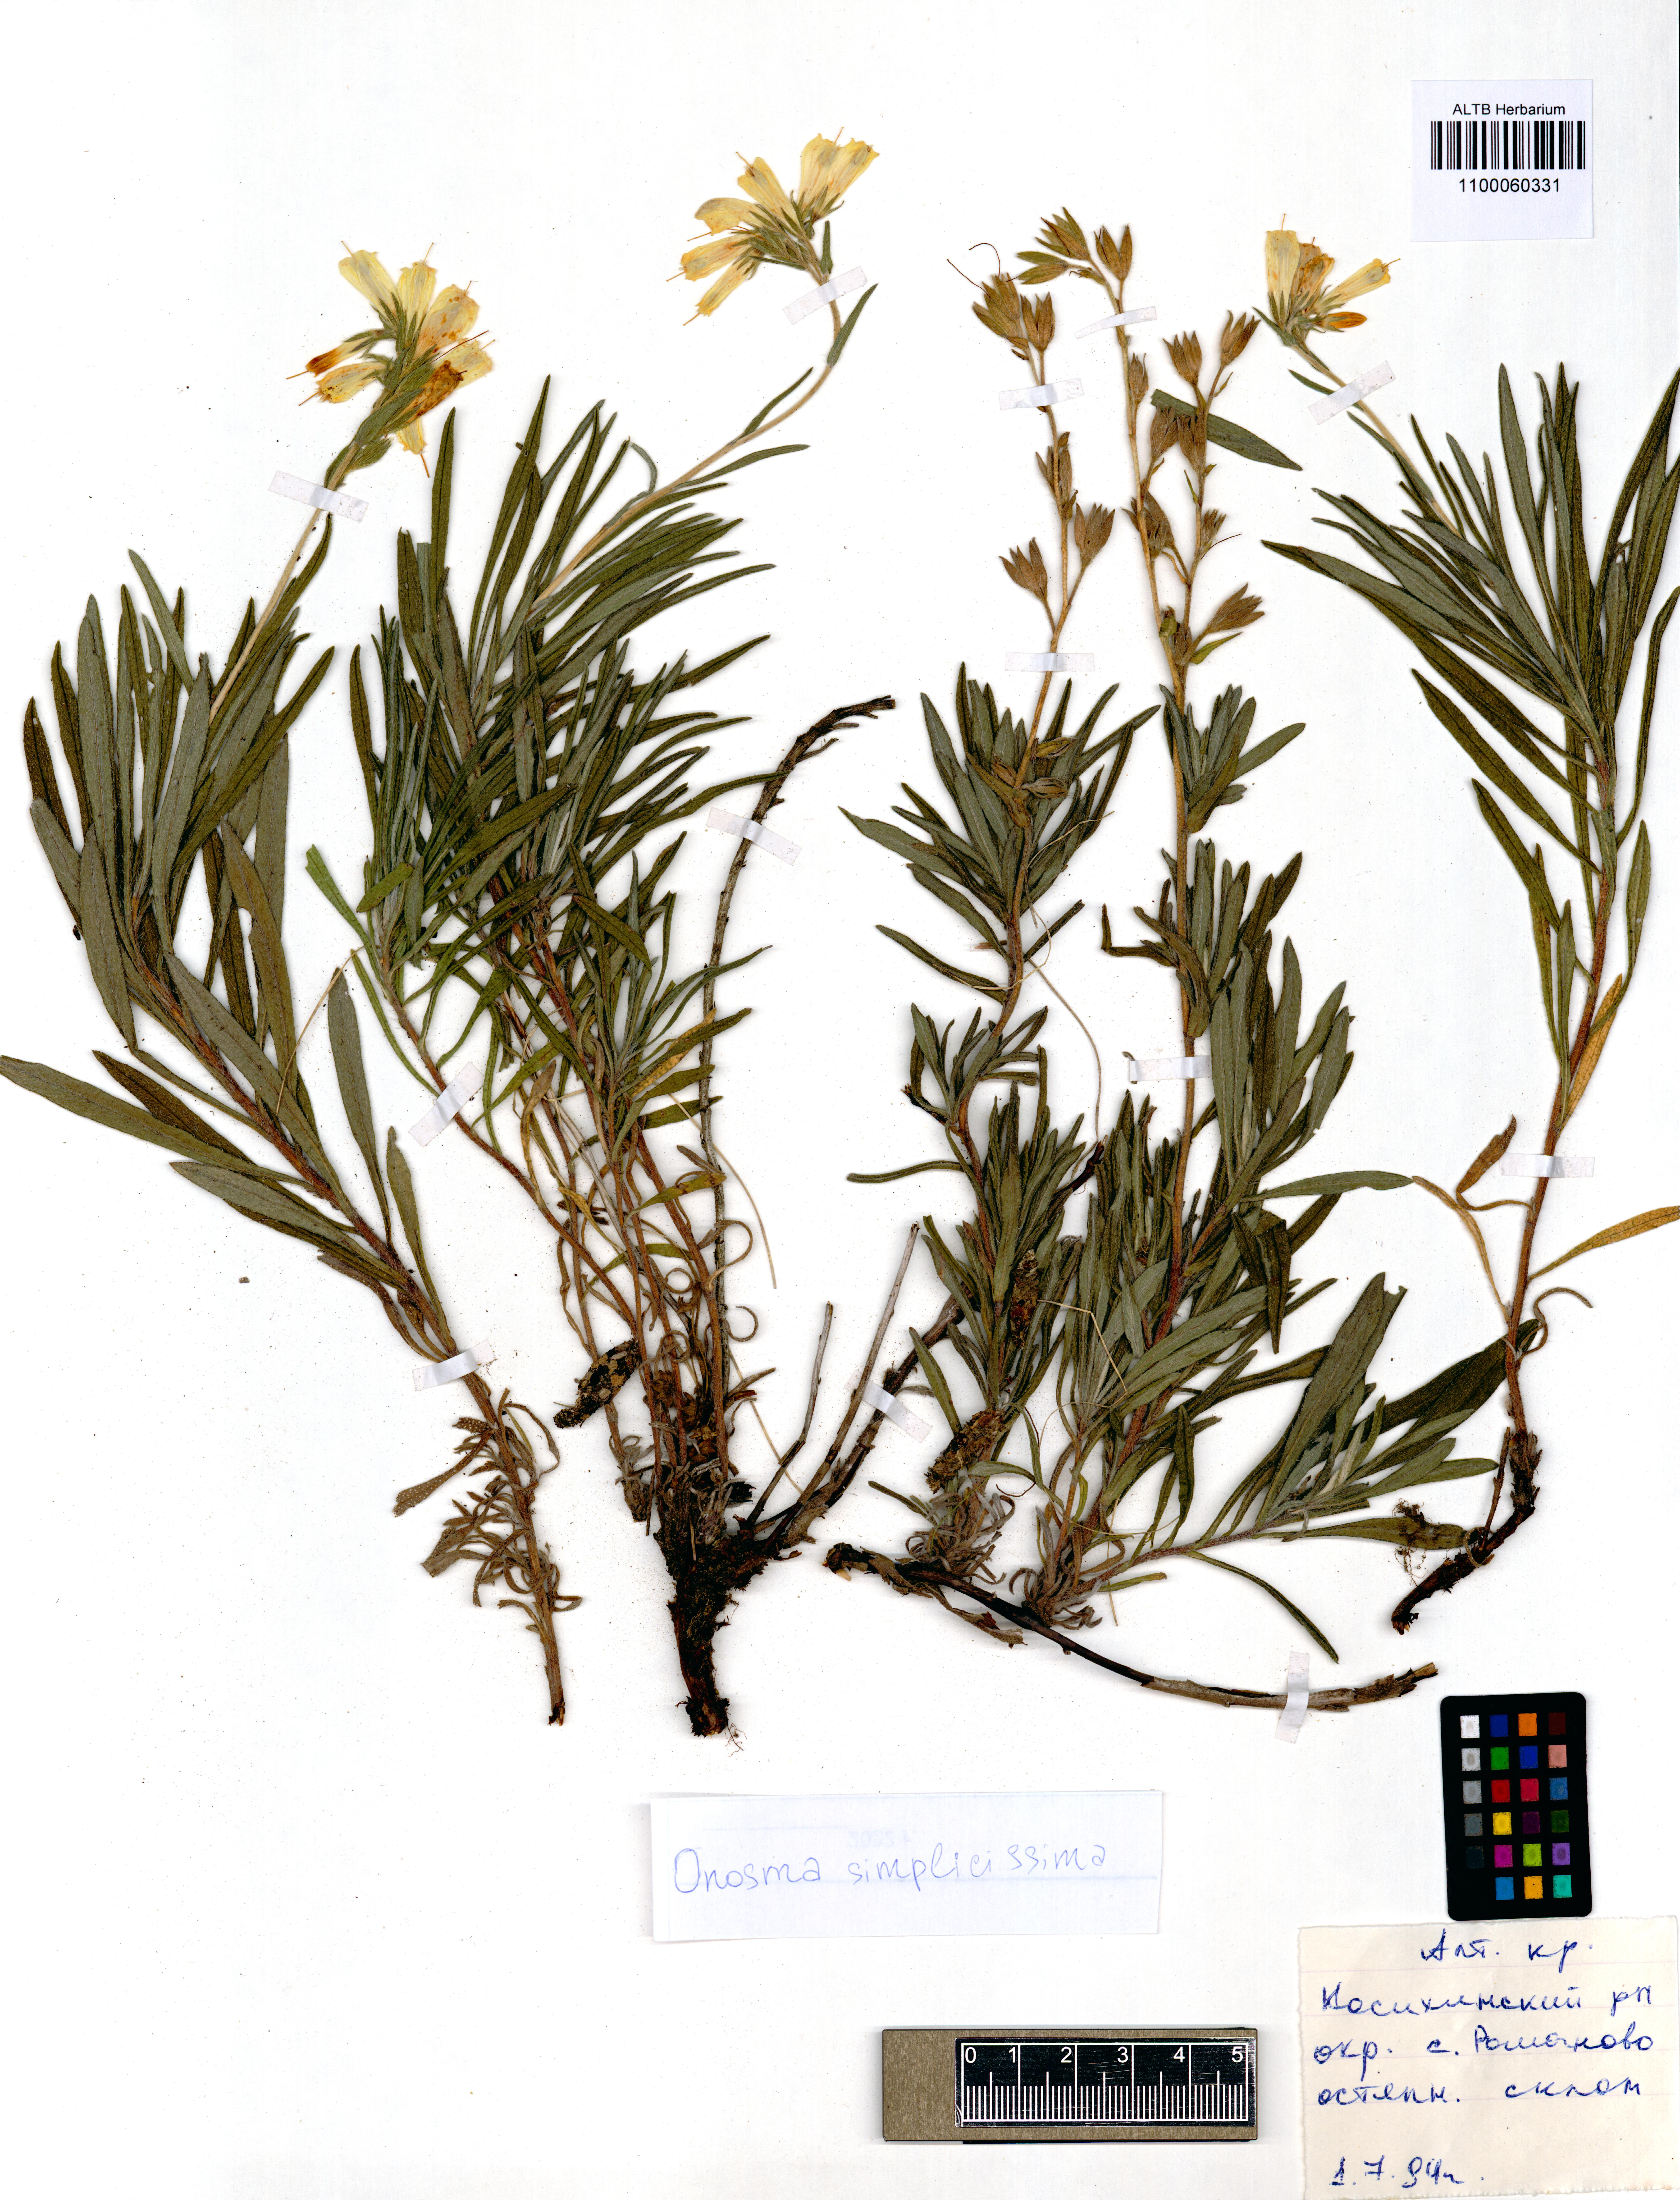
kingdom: Plantae
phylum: Tracheophyta
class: Magnoliopsida
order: Boraginales
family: Boraginaceae
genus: Onosma
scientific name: Onosma simplicissima
